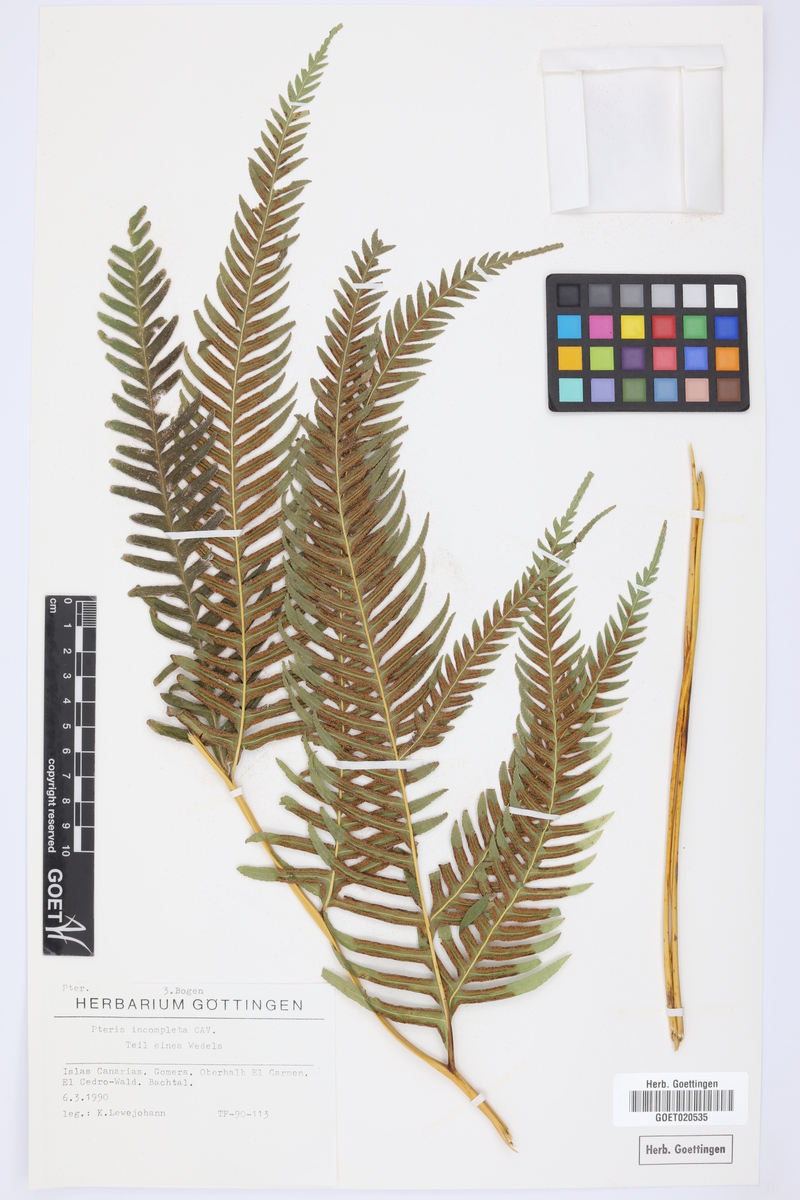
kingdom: Plantae
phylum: Tracheophyta
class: Polypodiopsida
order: Polypodiales
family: Pteridaceae
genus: Pteris
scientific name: Pteris incompleta
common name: Laurisilva brake
